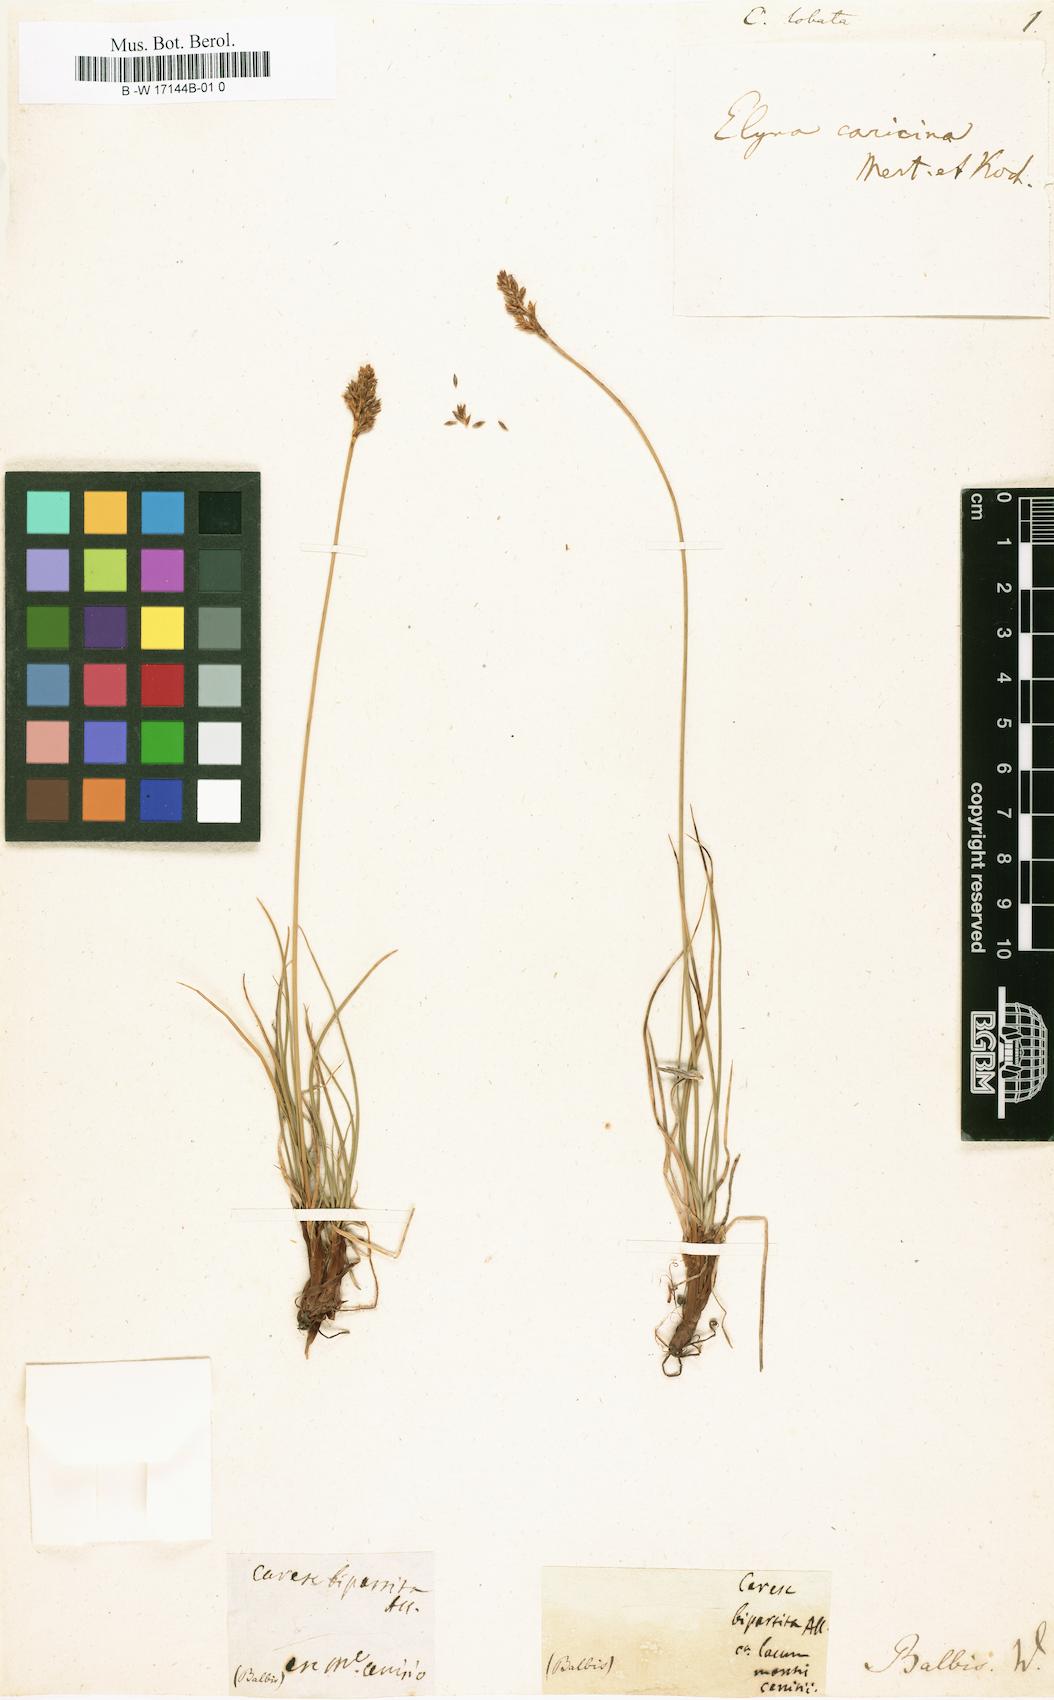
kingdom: Plantae
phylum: Tracheophyta
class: Liliopsida
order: Poales
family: Cyperaceae
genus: Carex
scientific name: Carex foetida
